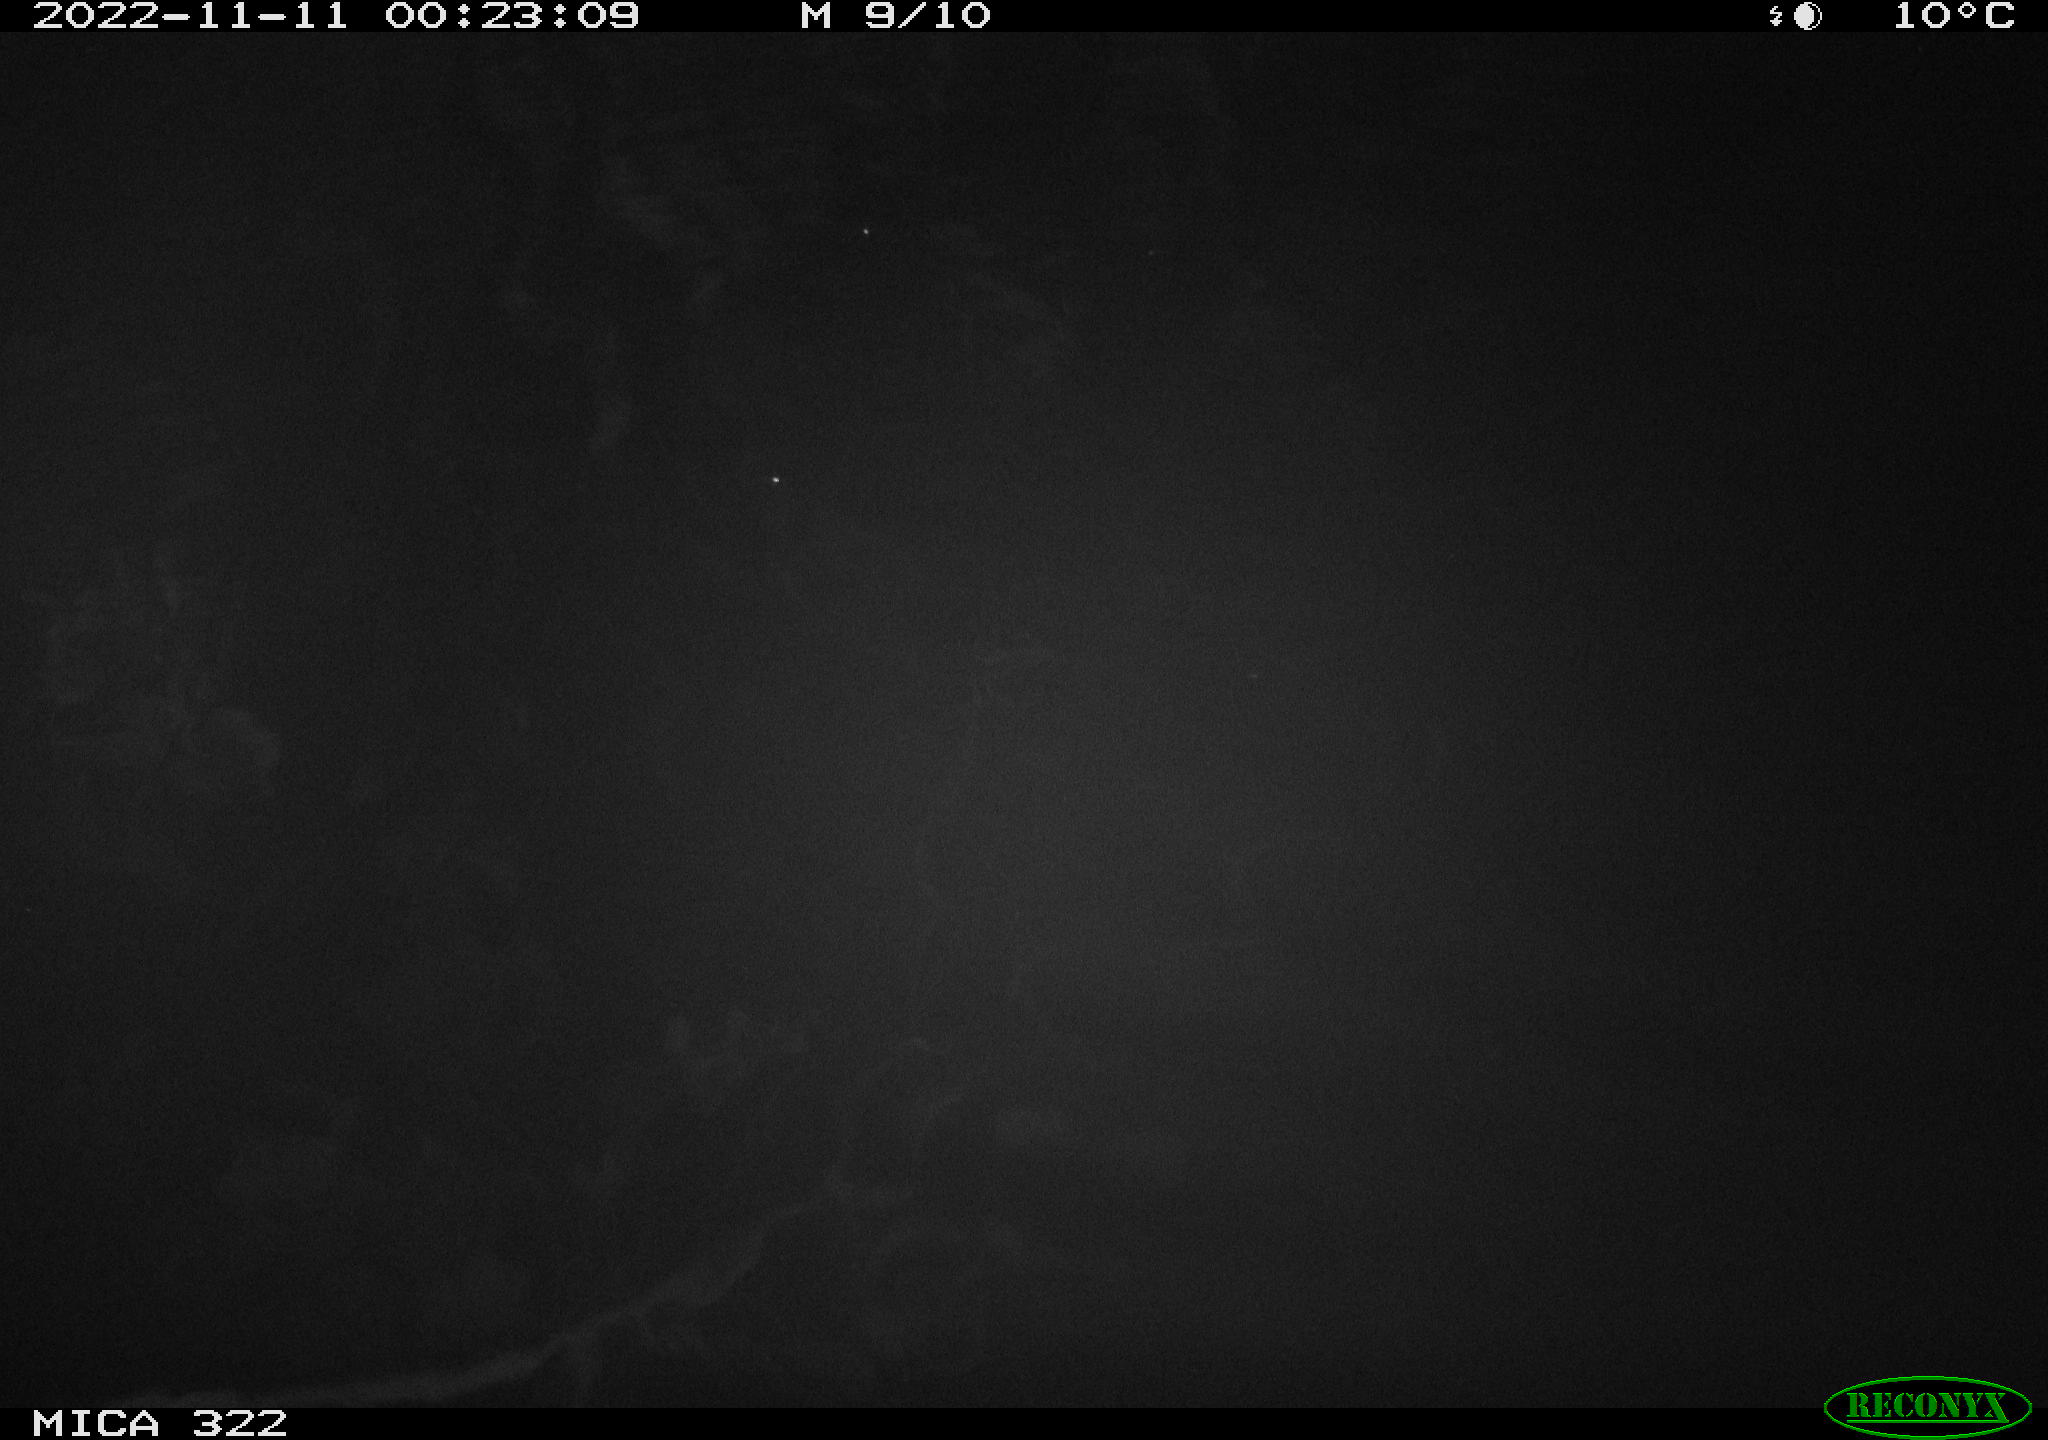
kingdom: Animalia
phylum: Chordata
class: Mammalia
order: Rodentia
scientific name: Rodentia
